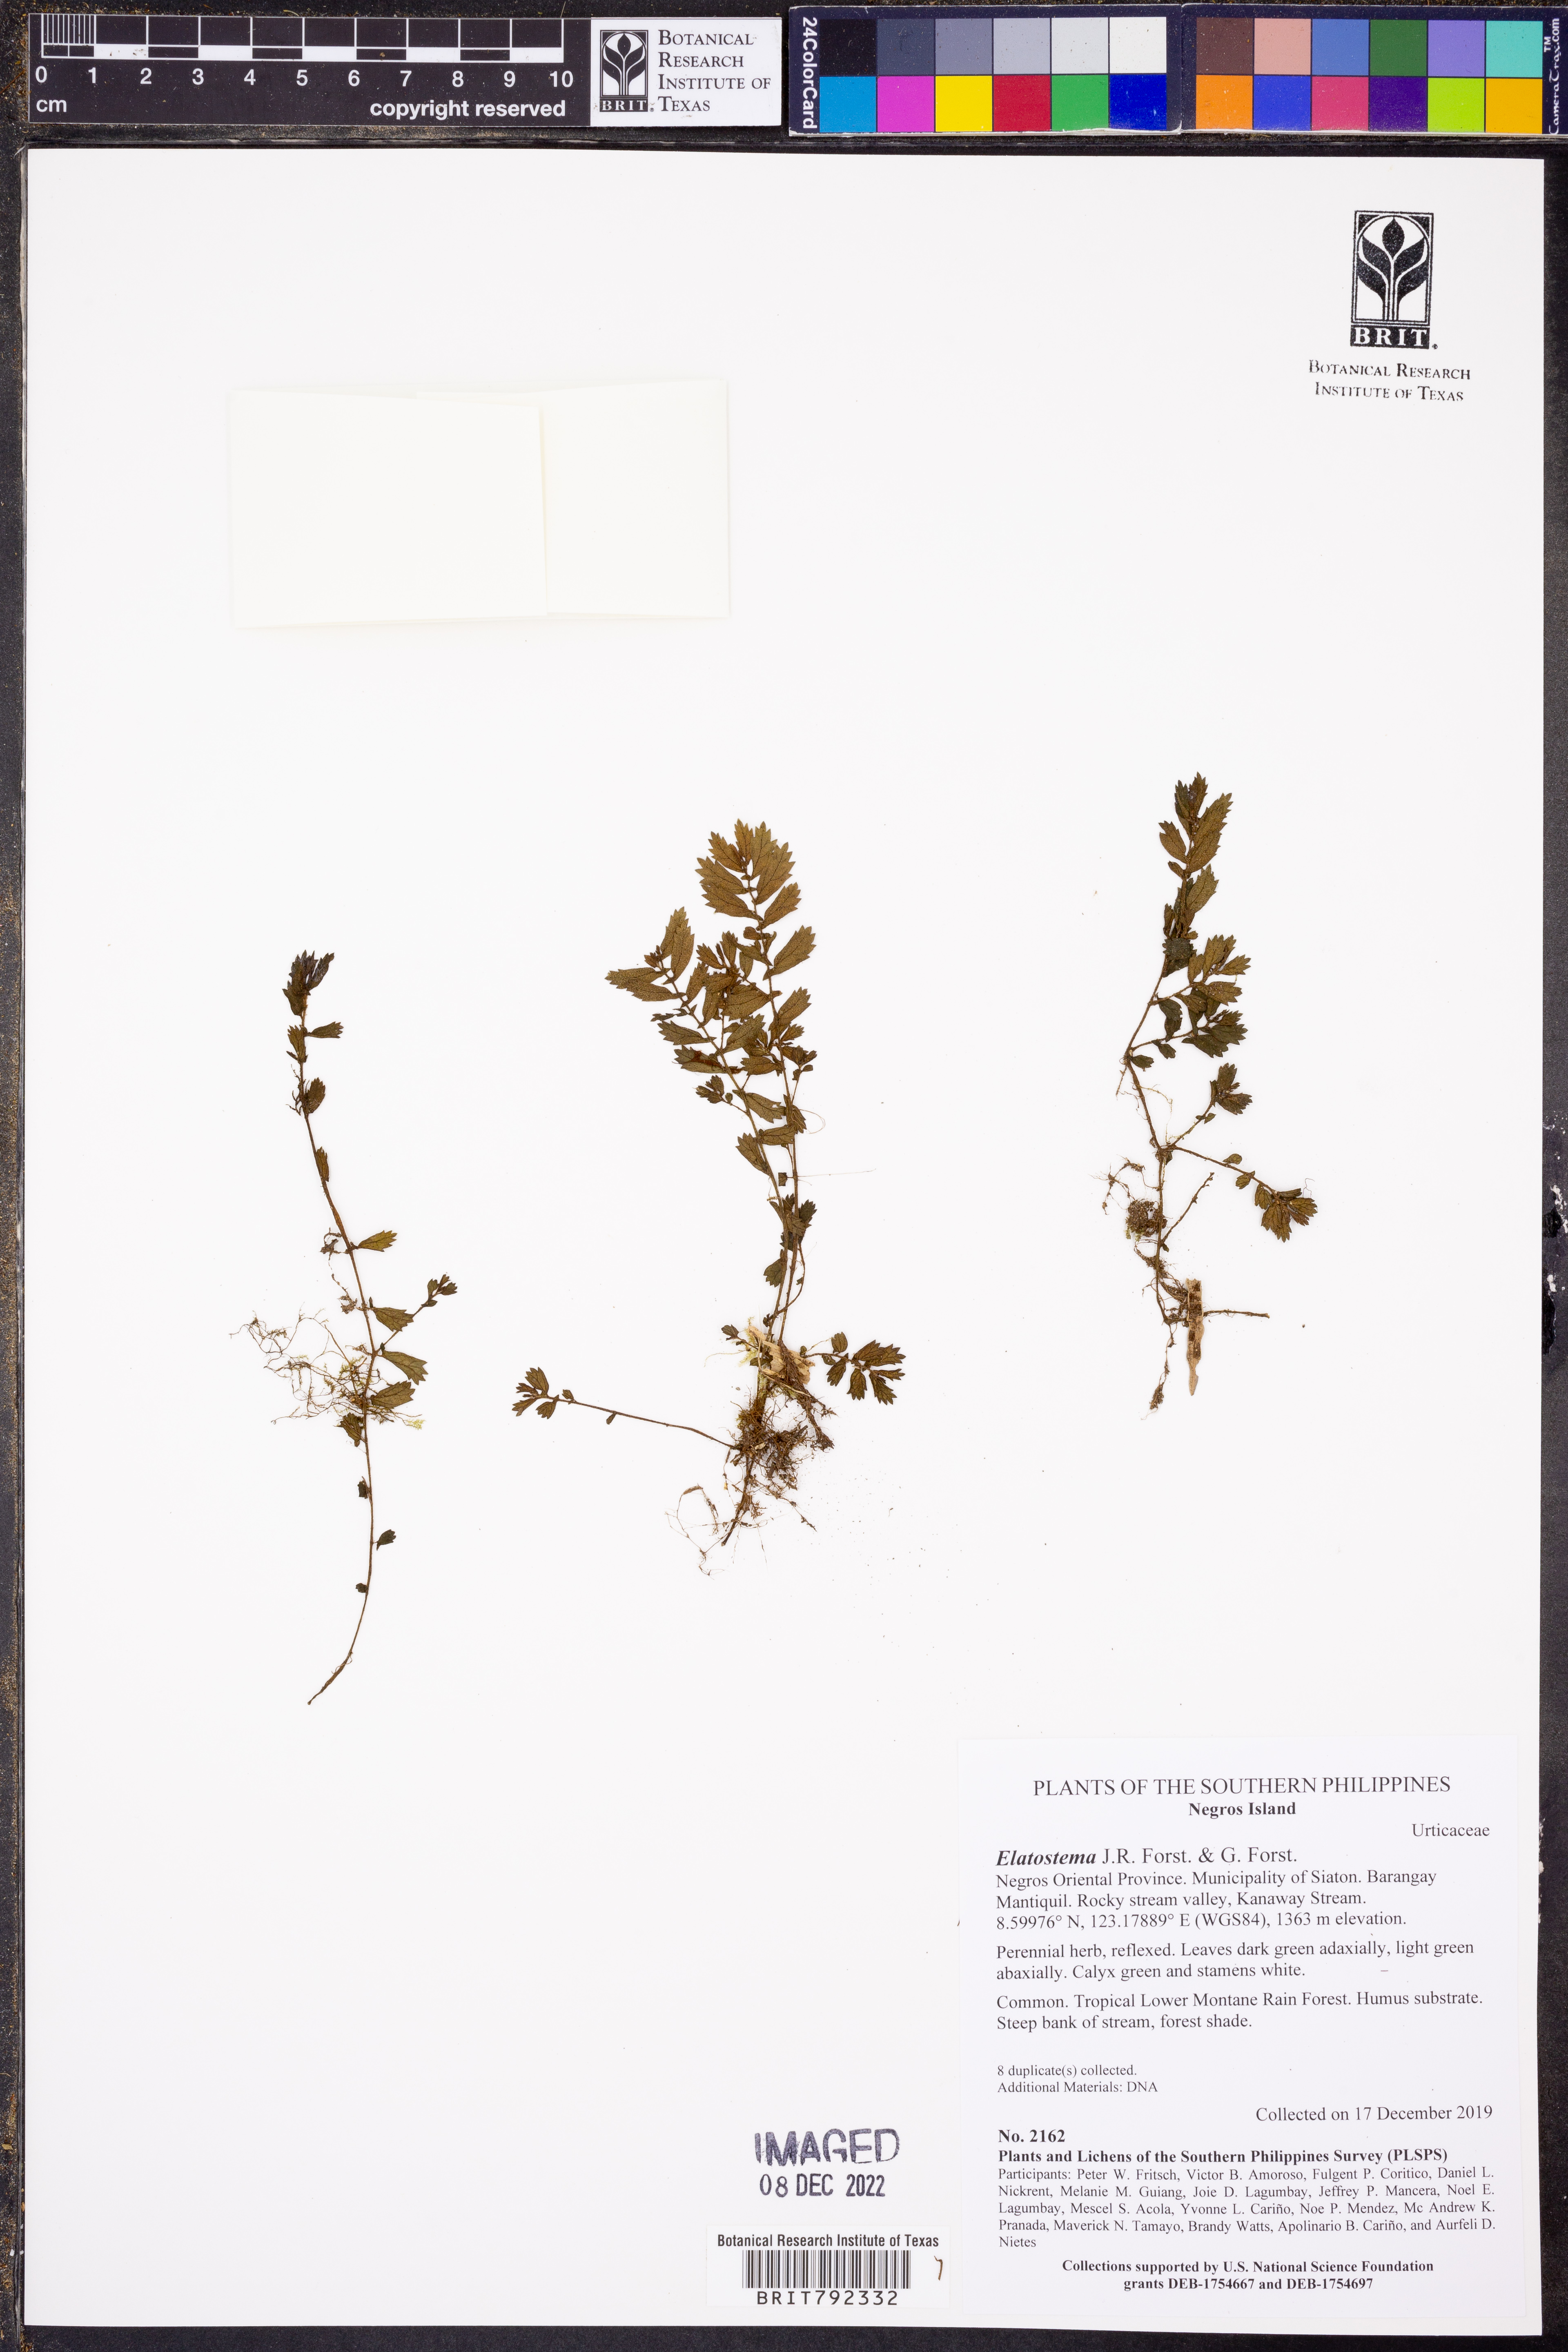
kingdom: Plantae
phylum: Tracheophyta
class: Magnoliopsida
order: Rosales
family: Urticaceae
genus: Elatostema
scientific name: Elatostema
